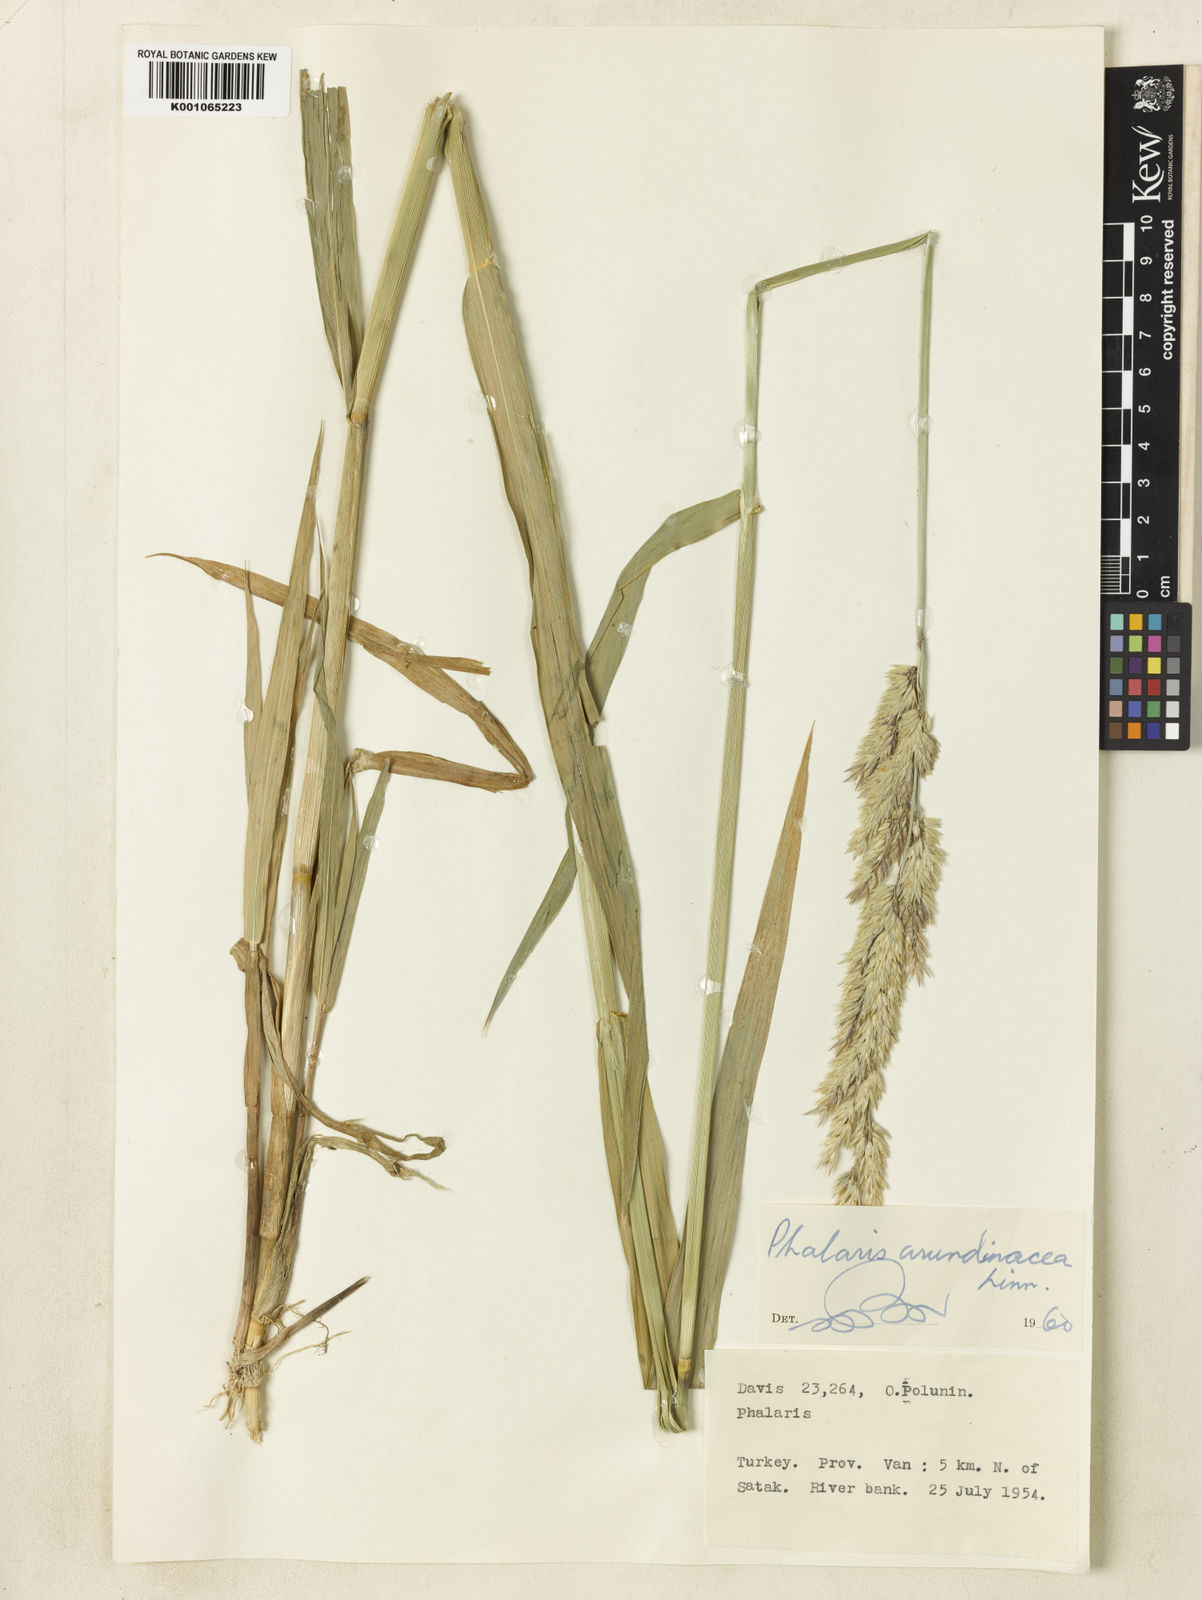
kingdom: Plantae
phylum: Tracheophyta
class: Liliopsida
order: Poales
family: Poaceae
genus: Phalaris
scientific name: Phalaris arundinacea
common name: Reed canary-grass
